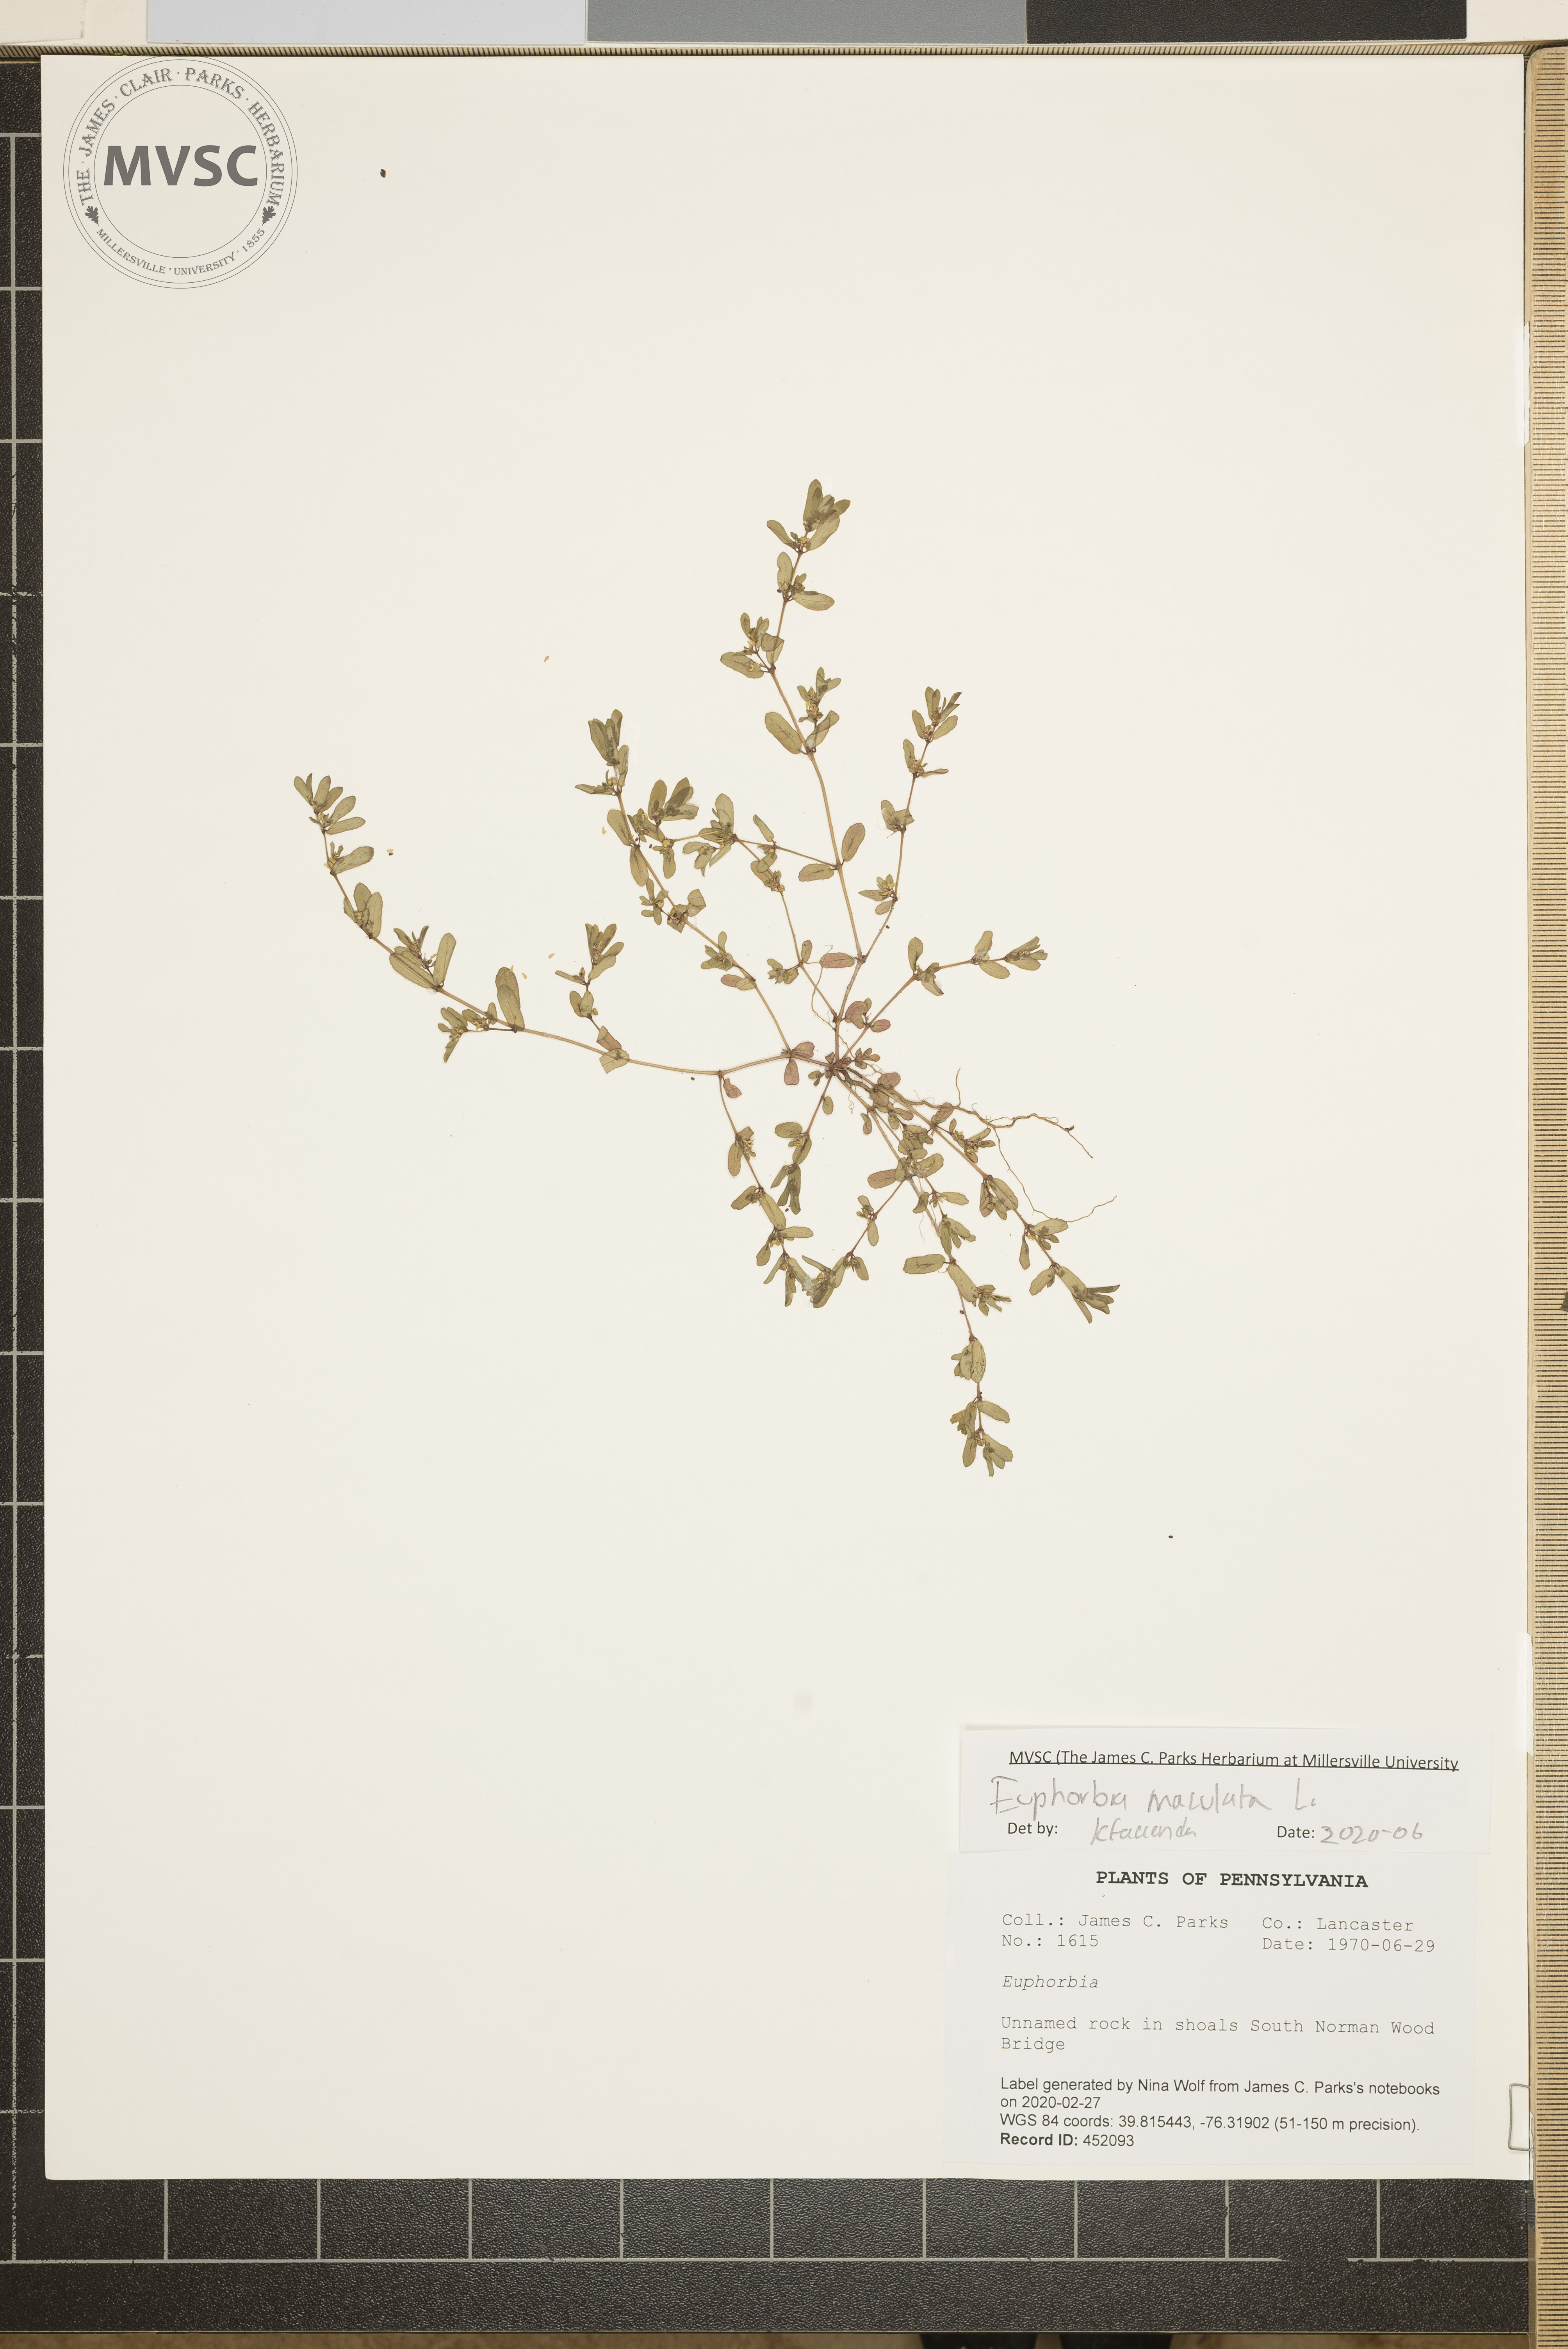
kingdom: Plantae
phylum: Tracheophyta
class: Magnoliopsida
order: Malpighiales
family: Euphorbiaceae
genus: Euphorbia
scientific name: Euphorbia maculata
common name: Spotted spurge
